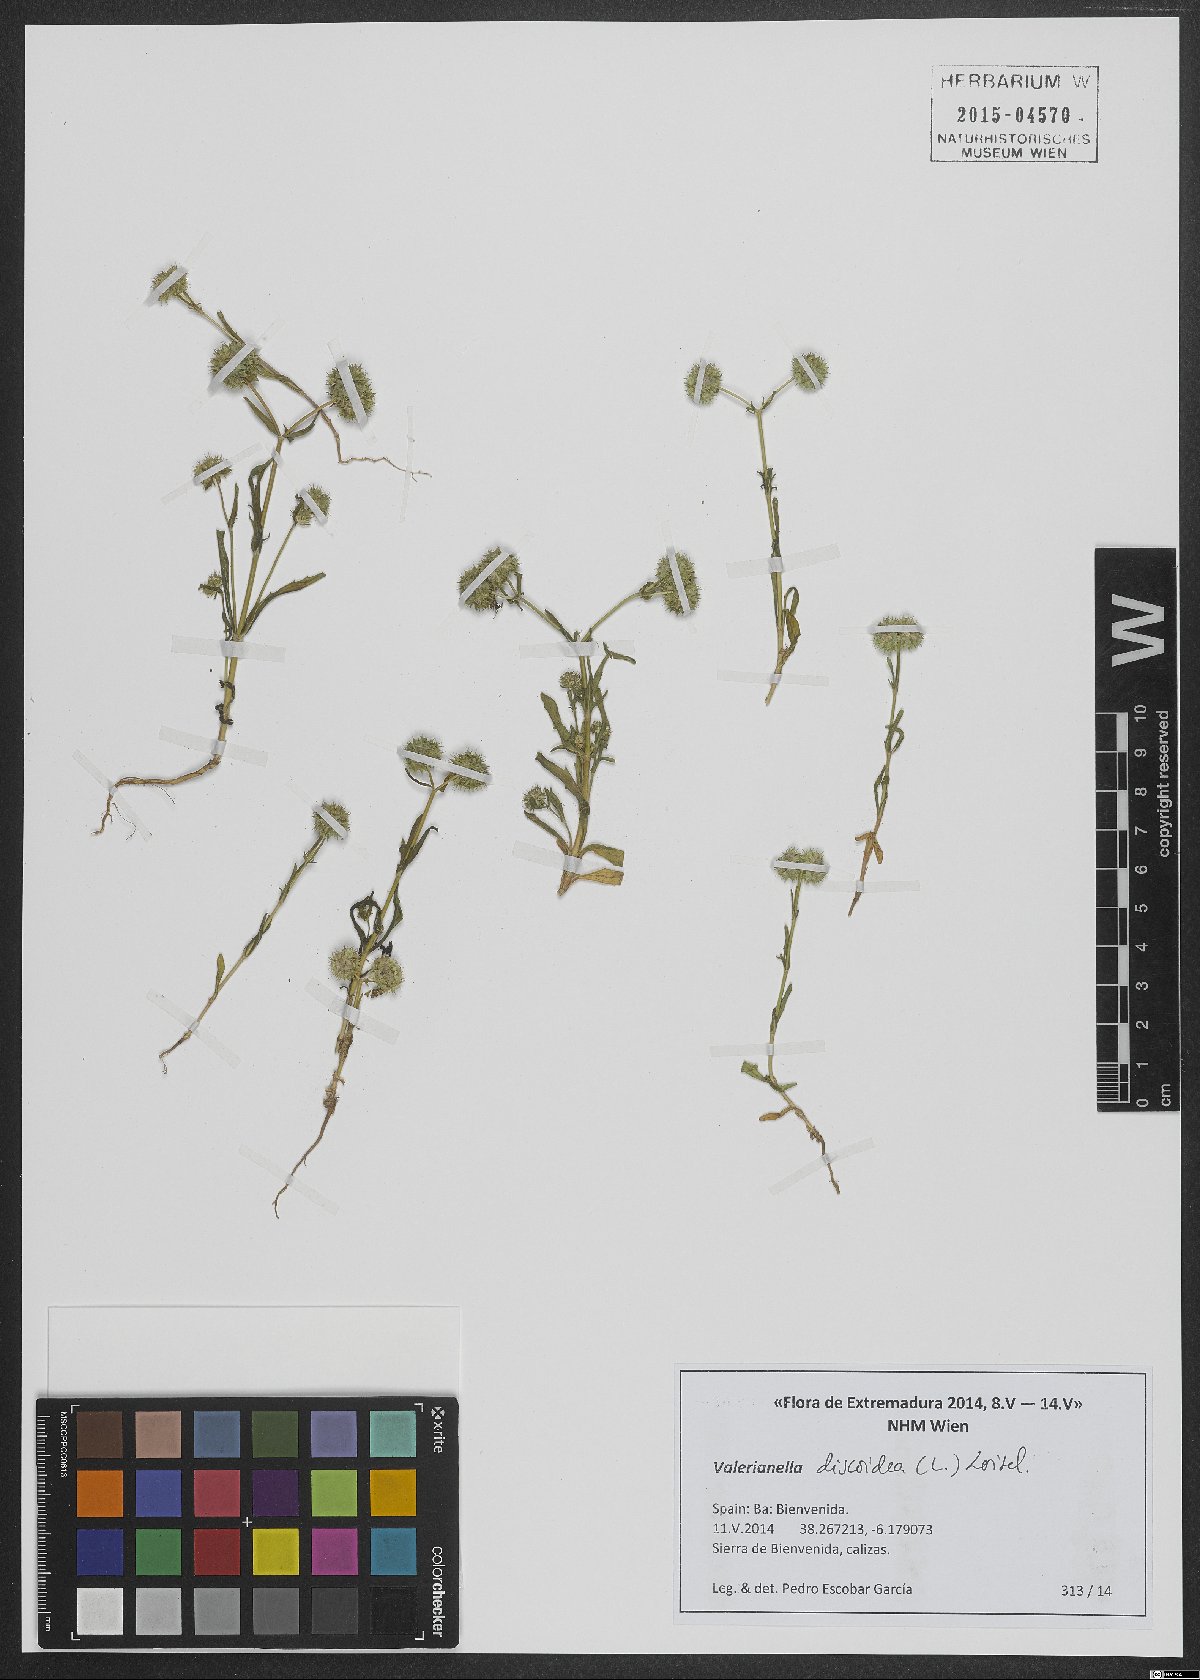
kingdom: Plantae
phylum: Tracheophyta
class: Magnoliopsida
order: Dipsacales
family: Caprifoliaceae
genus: Valerianella
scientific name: Valerianella discoidea
